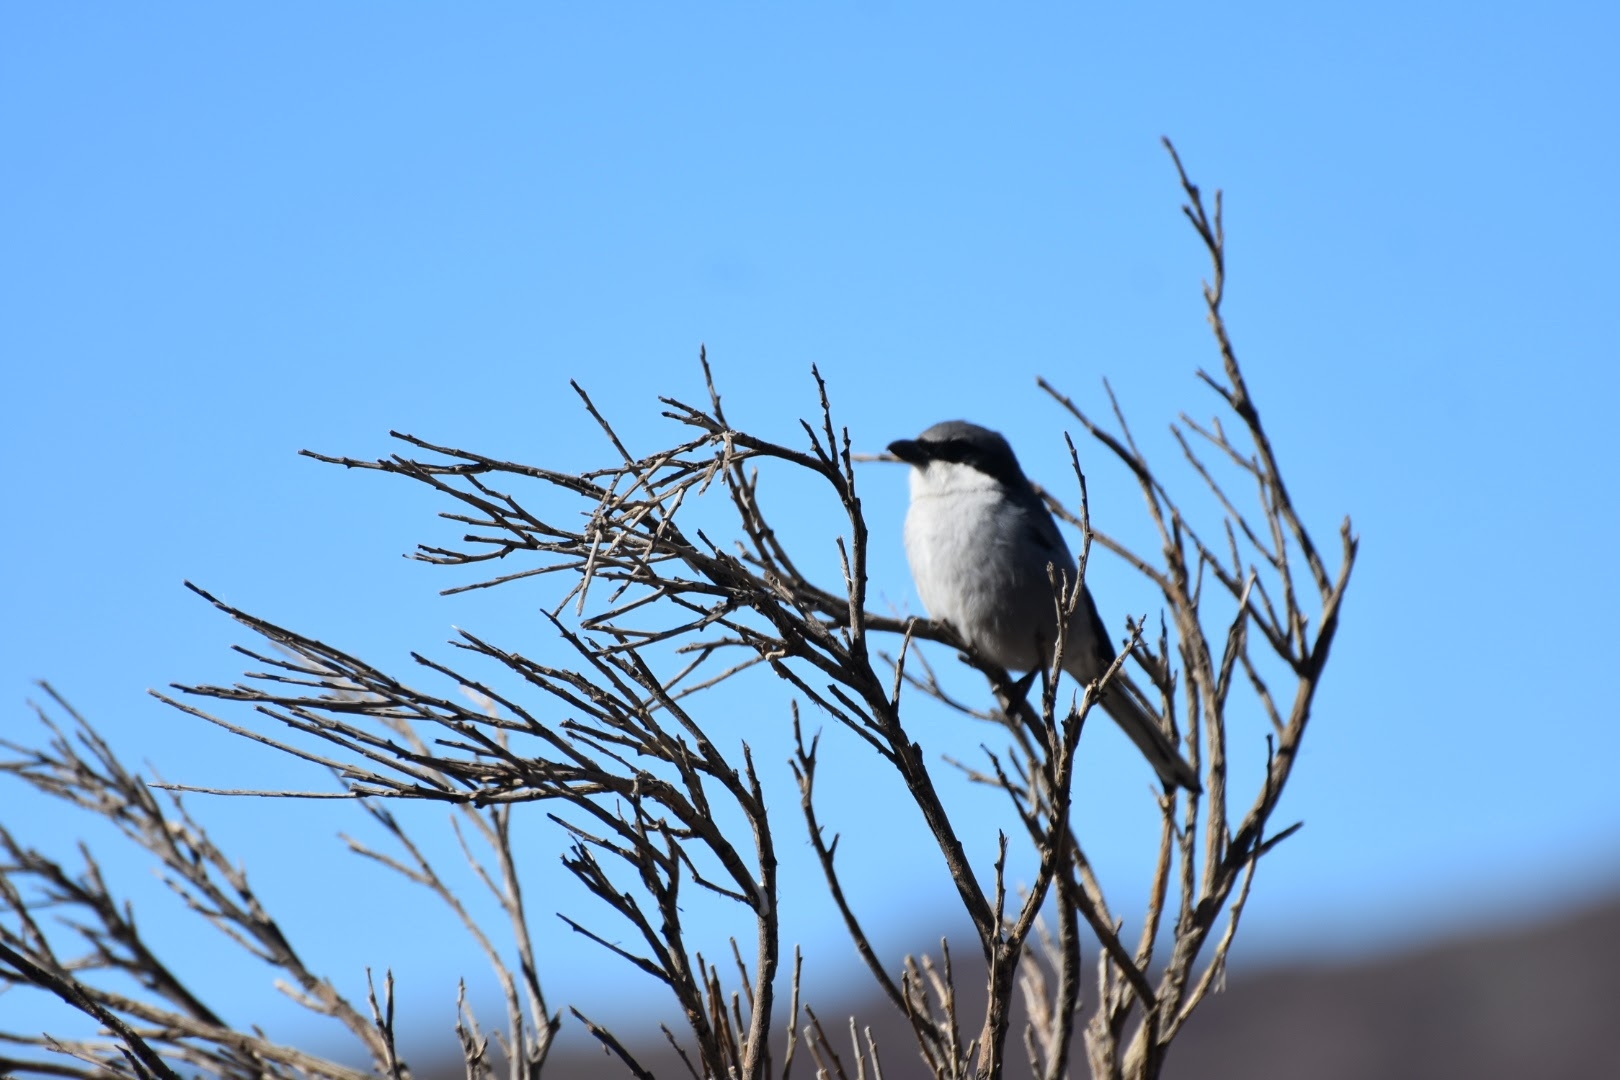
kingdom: Animalia
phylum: Chordata
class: Aves
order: Passeriformes
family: Laniidae
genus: Lanius
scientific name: Lanius excubitor
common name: Stor tornskade
